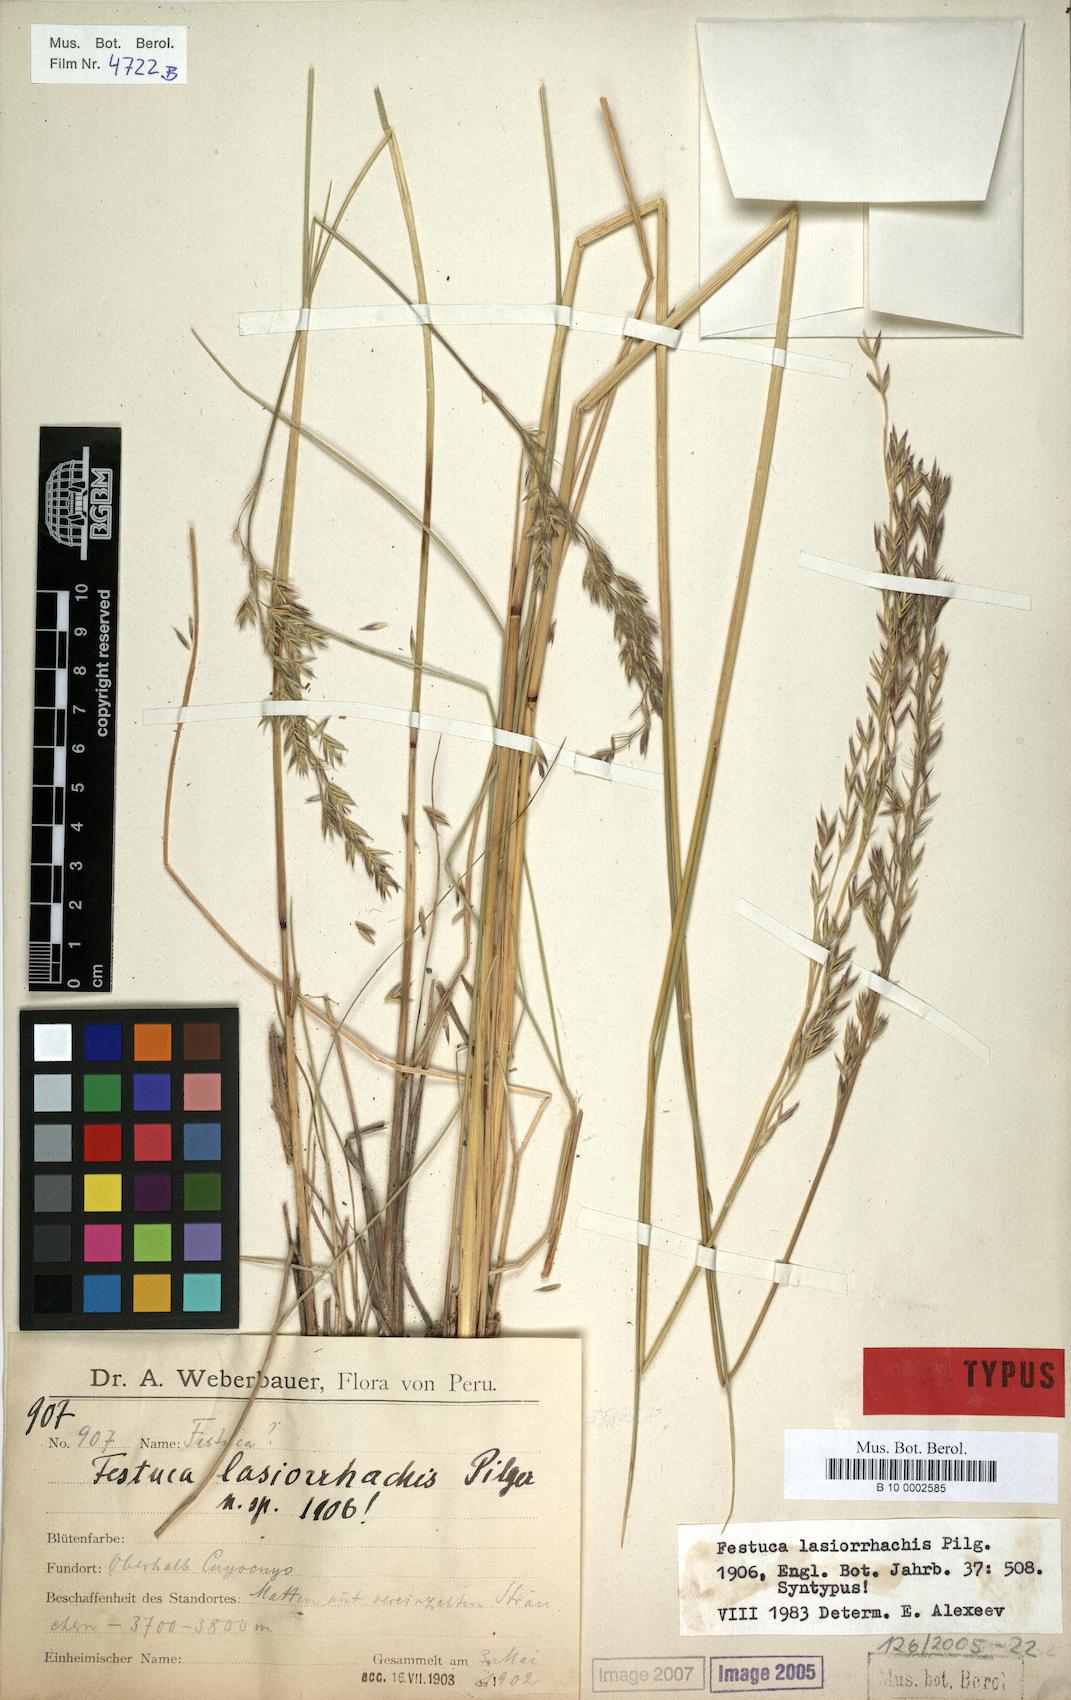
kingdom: Plantae
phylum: Tracheophyta
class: Liliopsida
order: Poales
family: Poaceae
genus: Festuca
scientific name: Festuca
